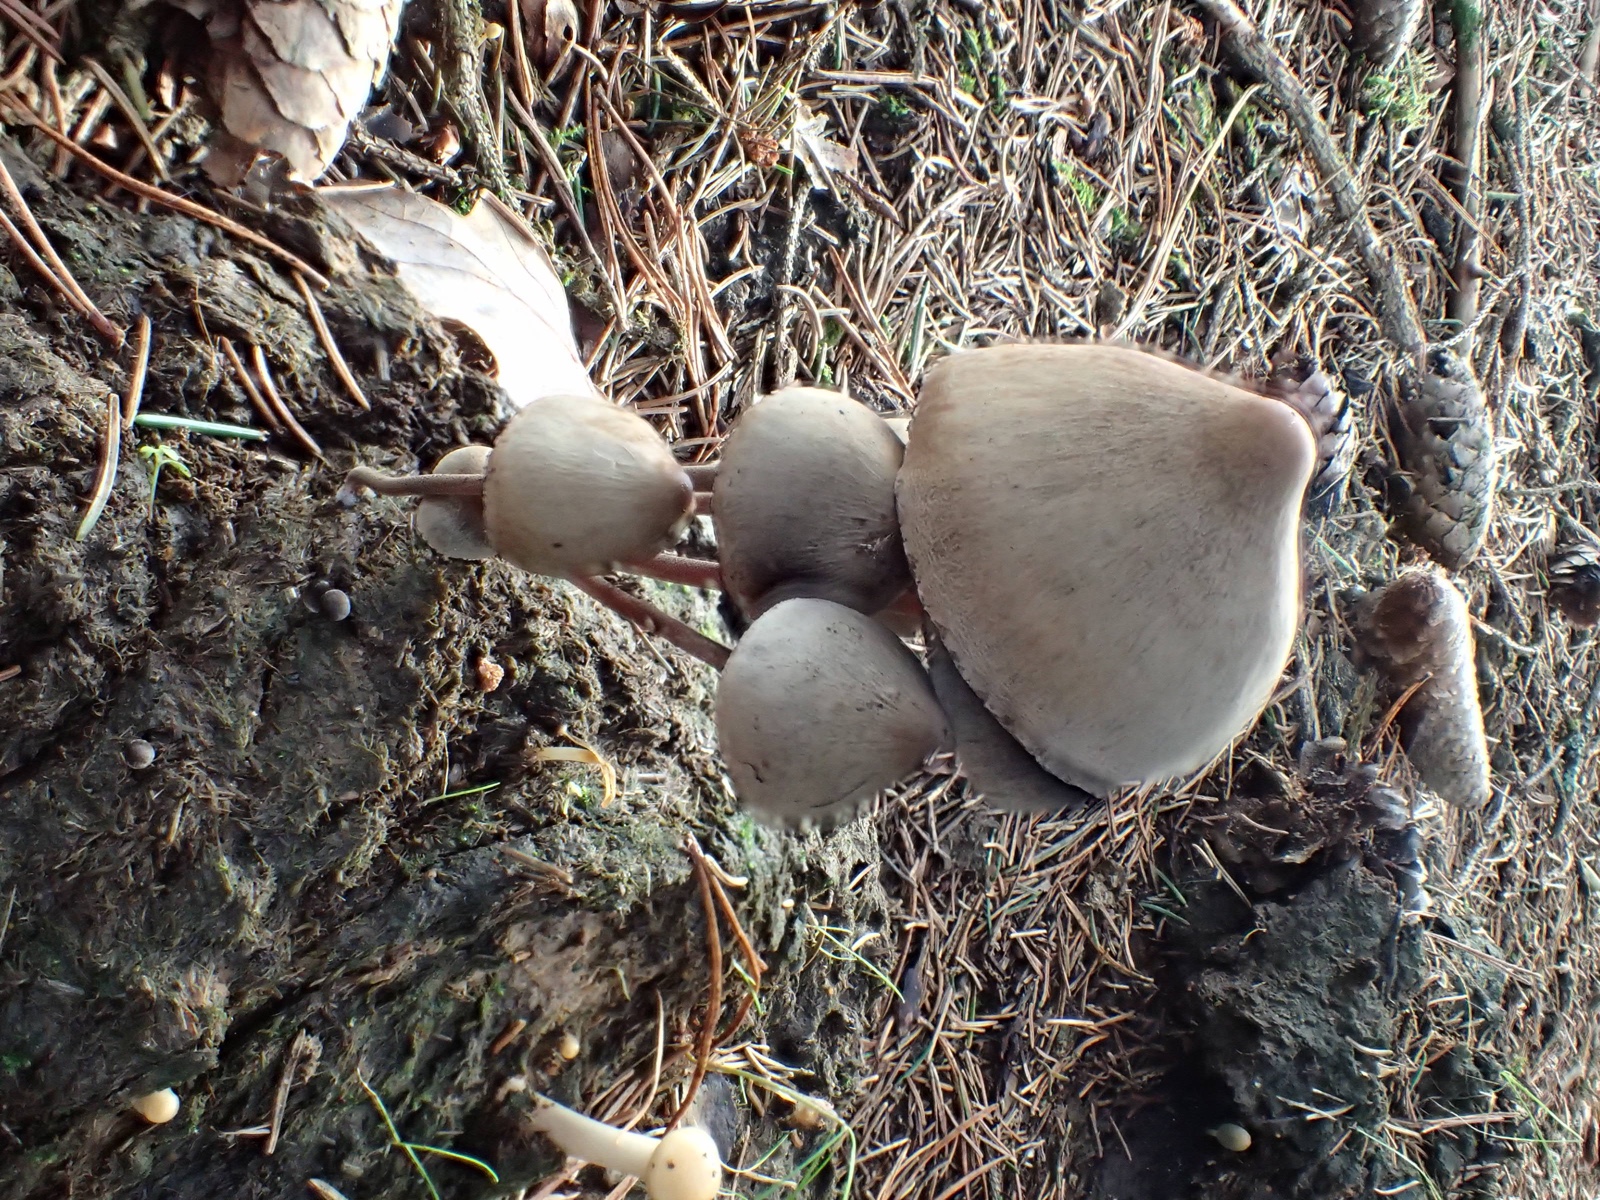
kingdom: Fungi
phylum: Basidiomycota
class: Agaricomycetes
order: Agaricales
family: Bolbitiaceae
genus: Panaeolus
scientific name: Panaeolus papilionaceus
